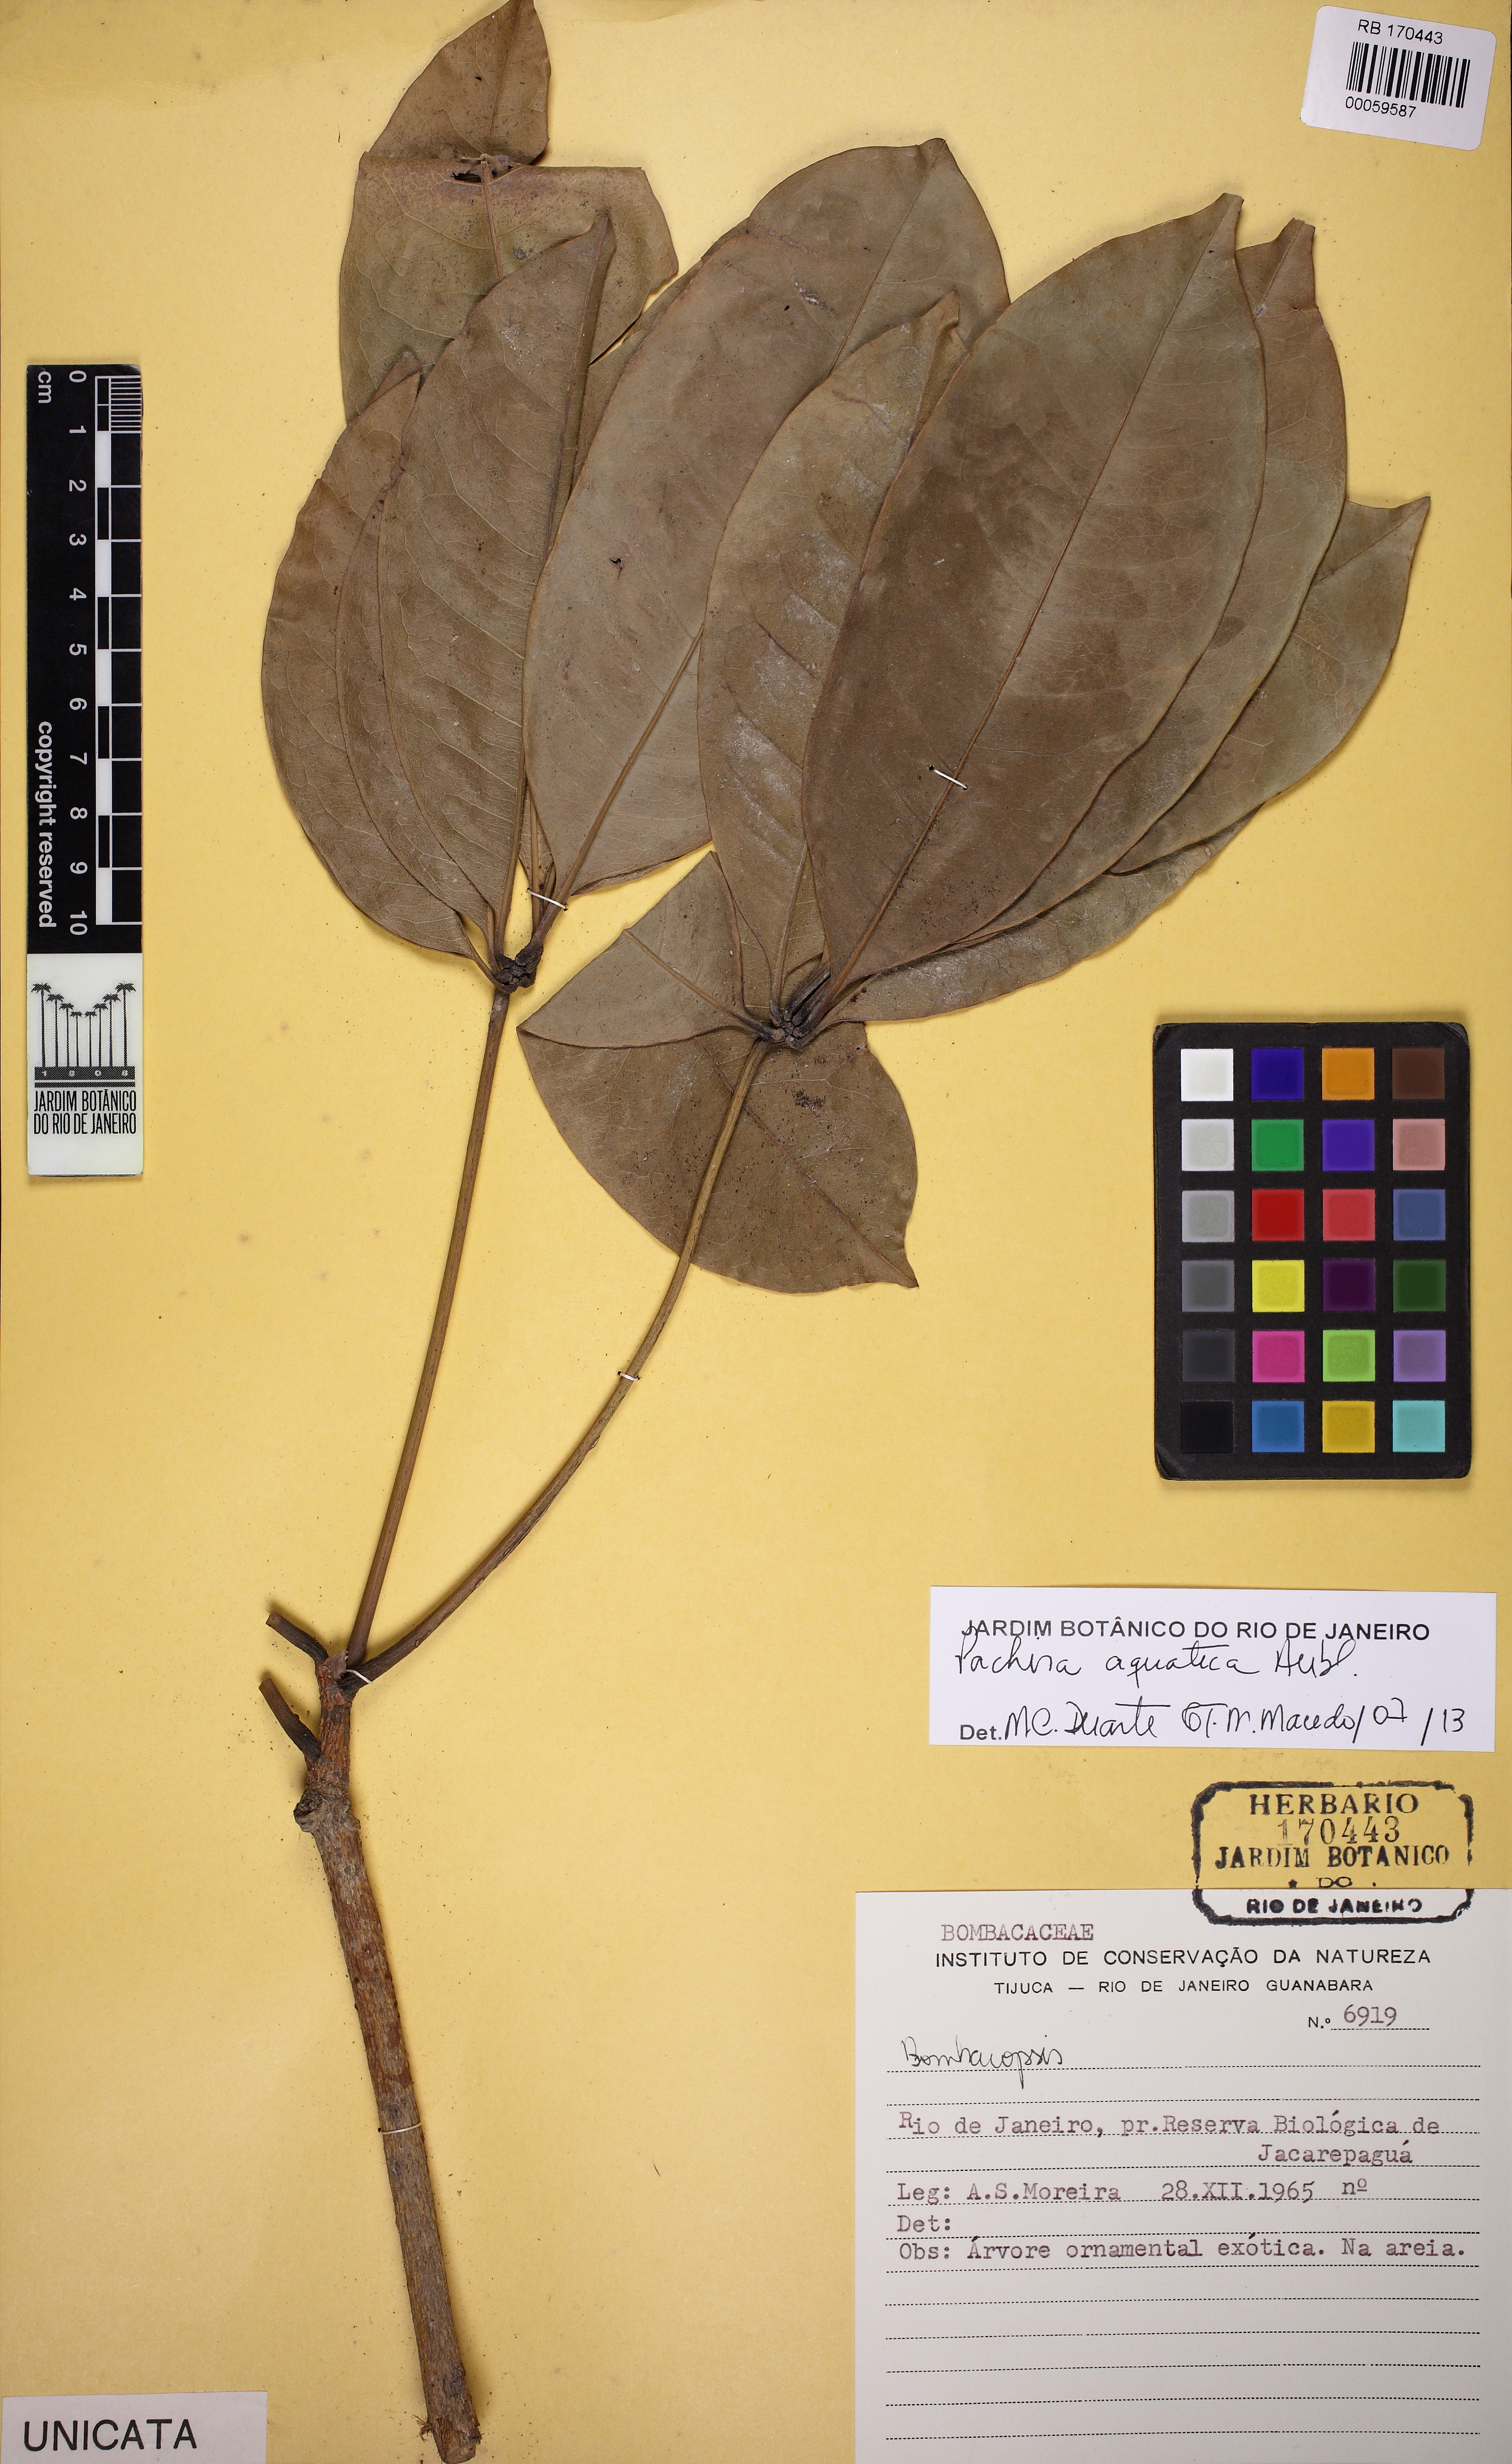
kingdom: Plantae
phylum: Tracheophyta
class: Magnoliopsida
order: Malvales
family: Malvaceae
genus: Pachira
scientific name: Pachira aquatica
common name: Provision-tree
